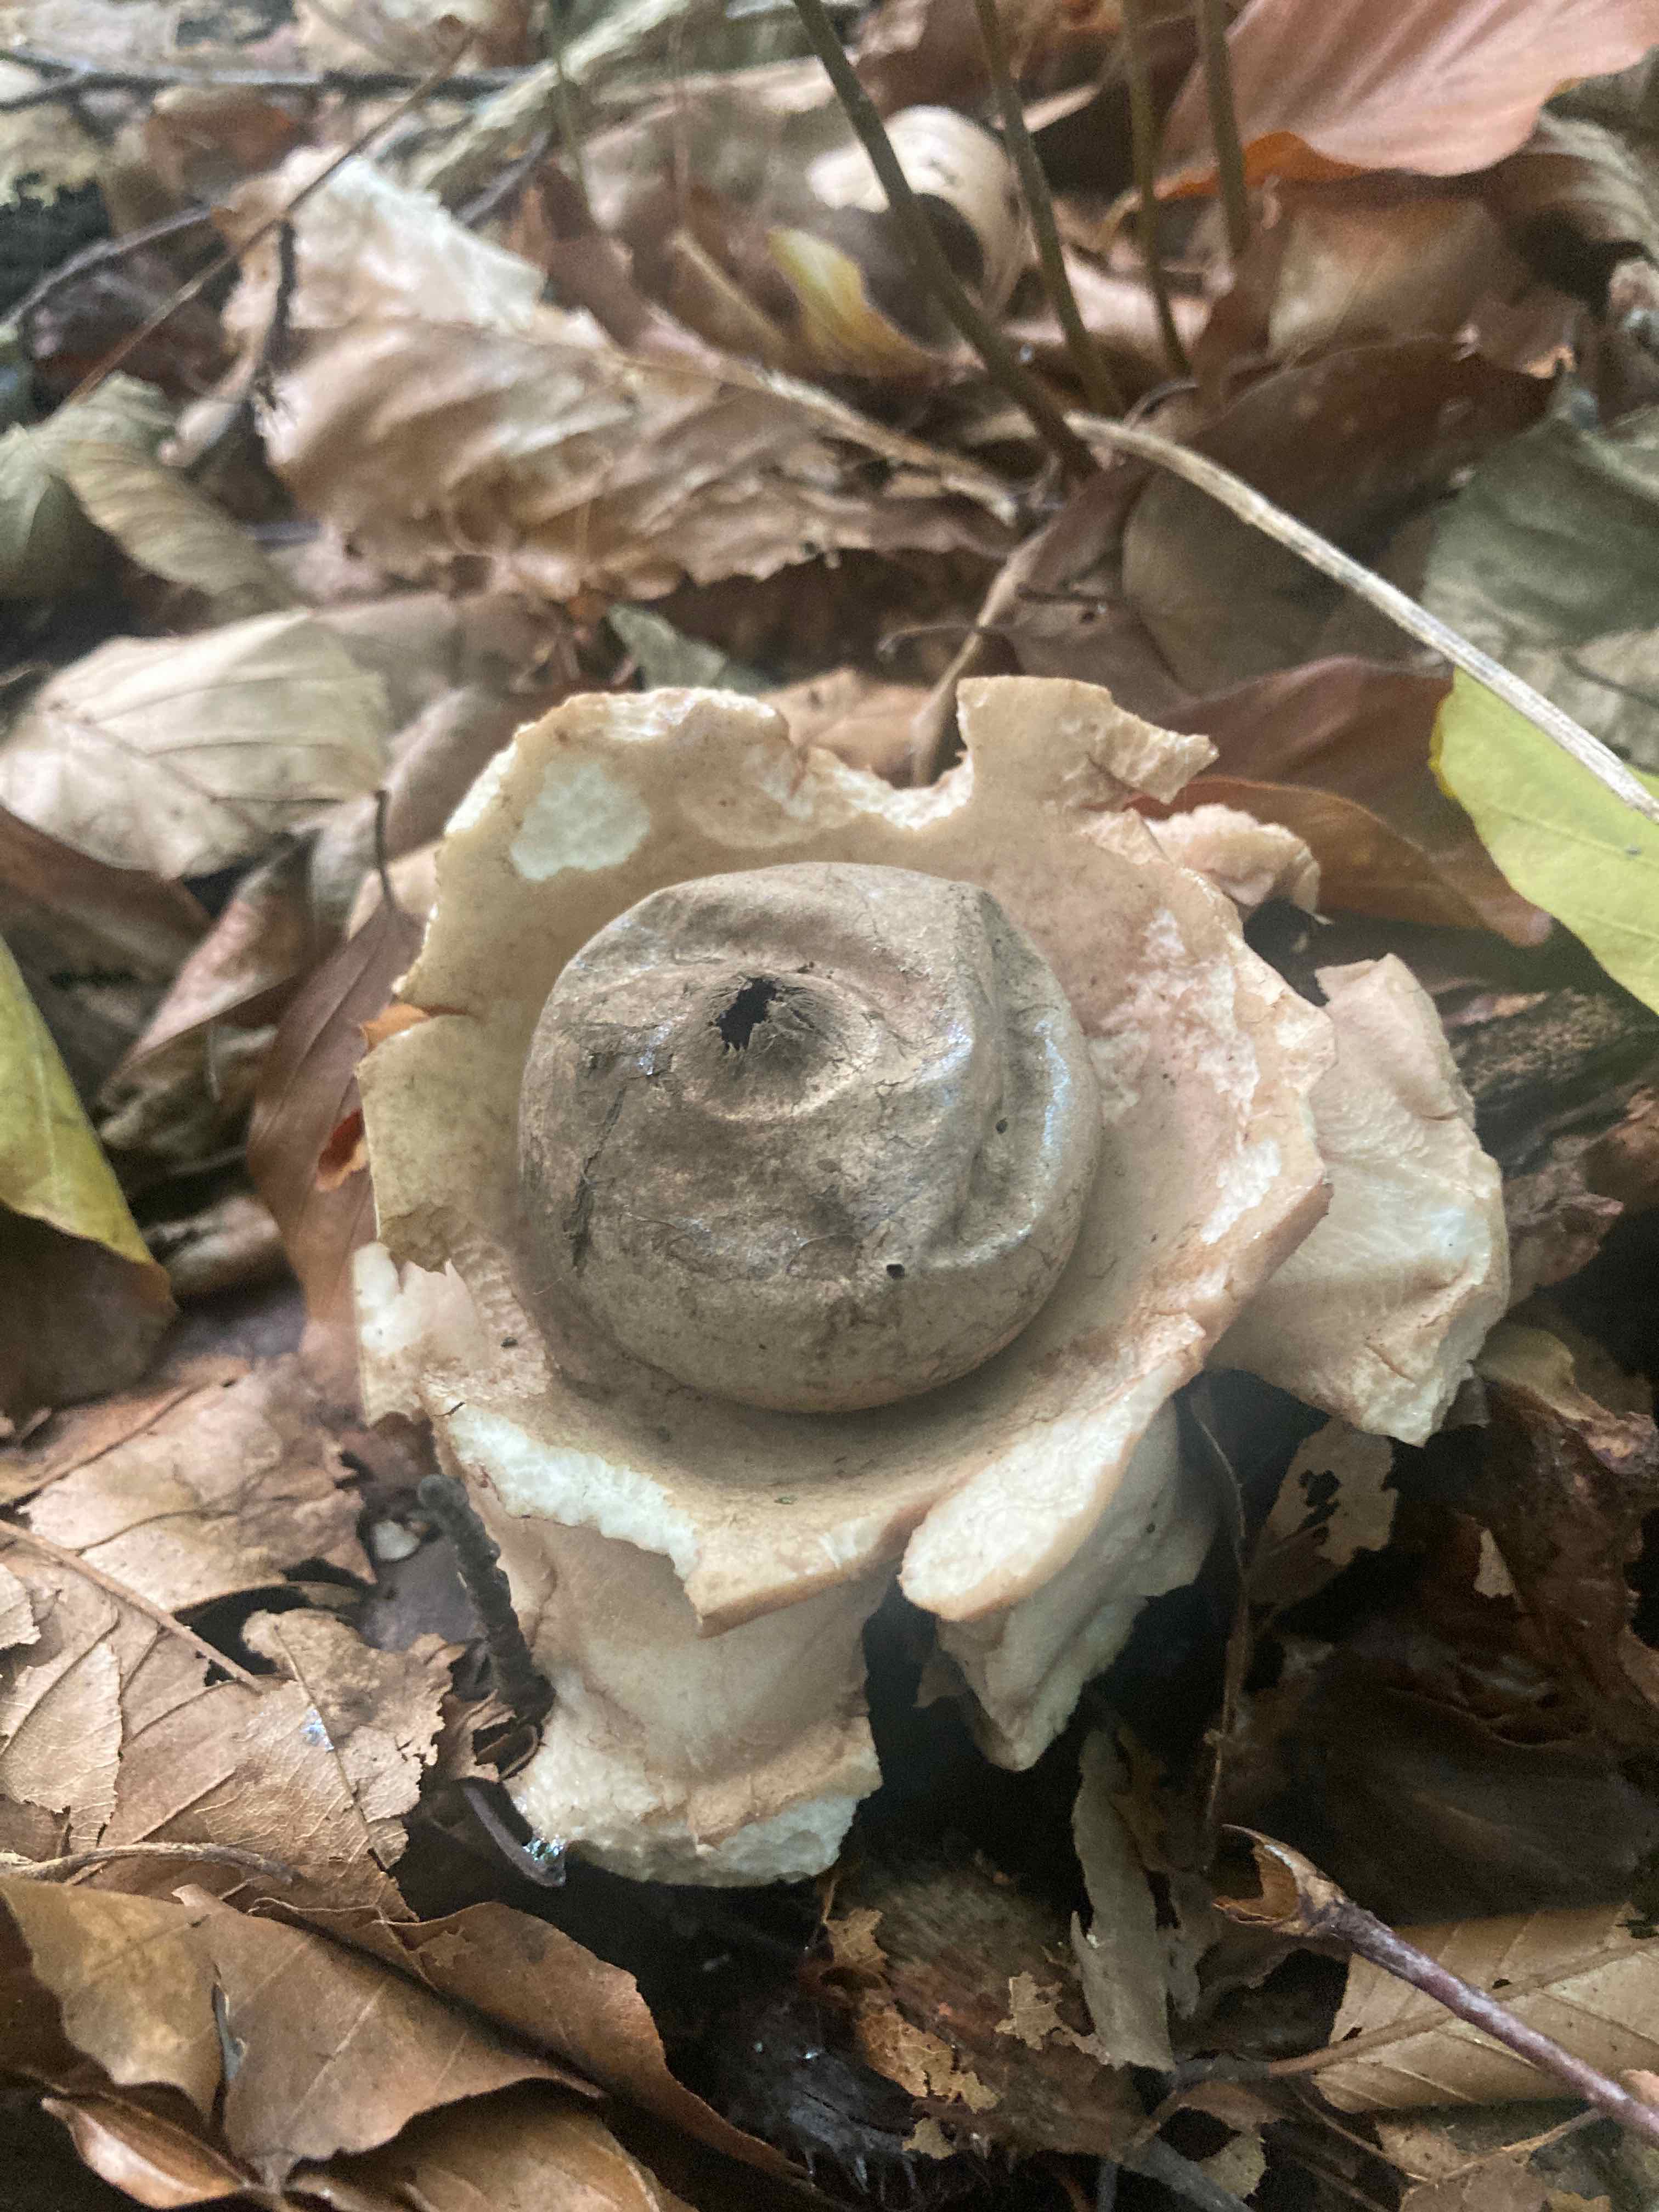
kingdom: Fungi
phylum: Basidiomycota
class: Agaricomycetes
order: Geastrales
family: Geastraceae
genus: Geastrum
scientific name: Geastrum michelianum
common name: kødet stjernebold
